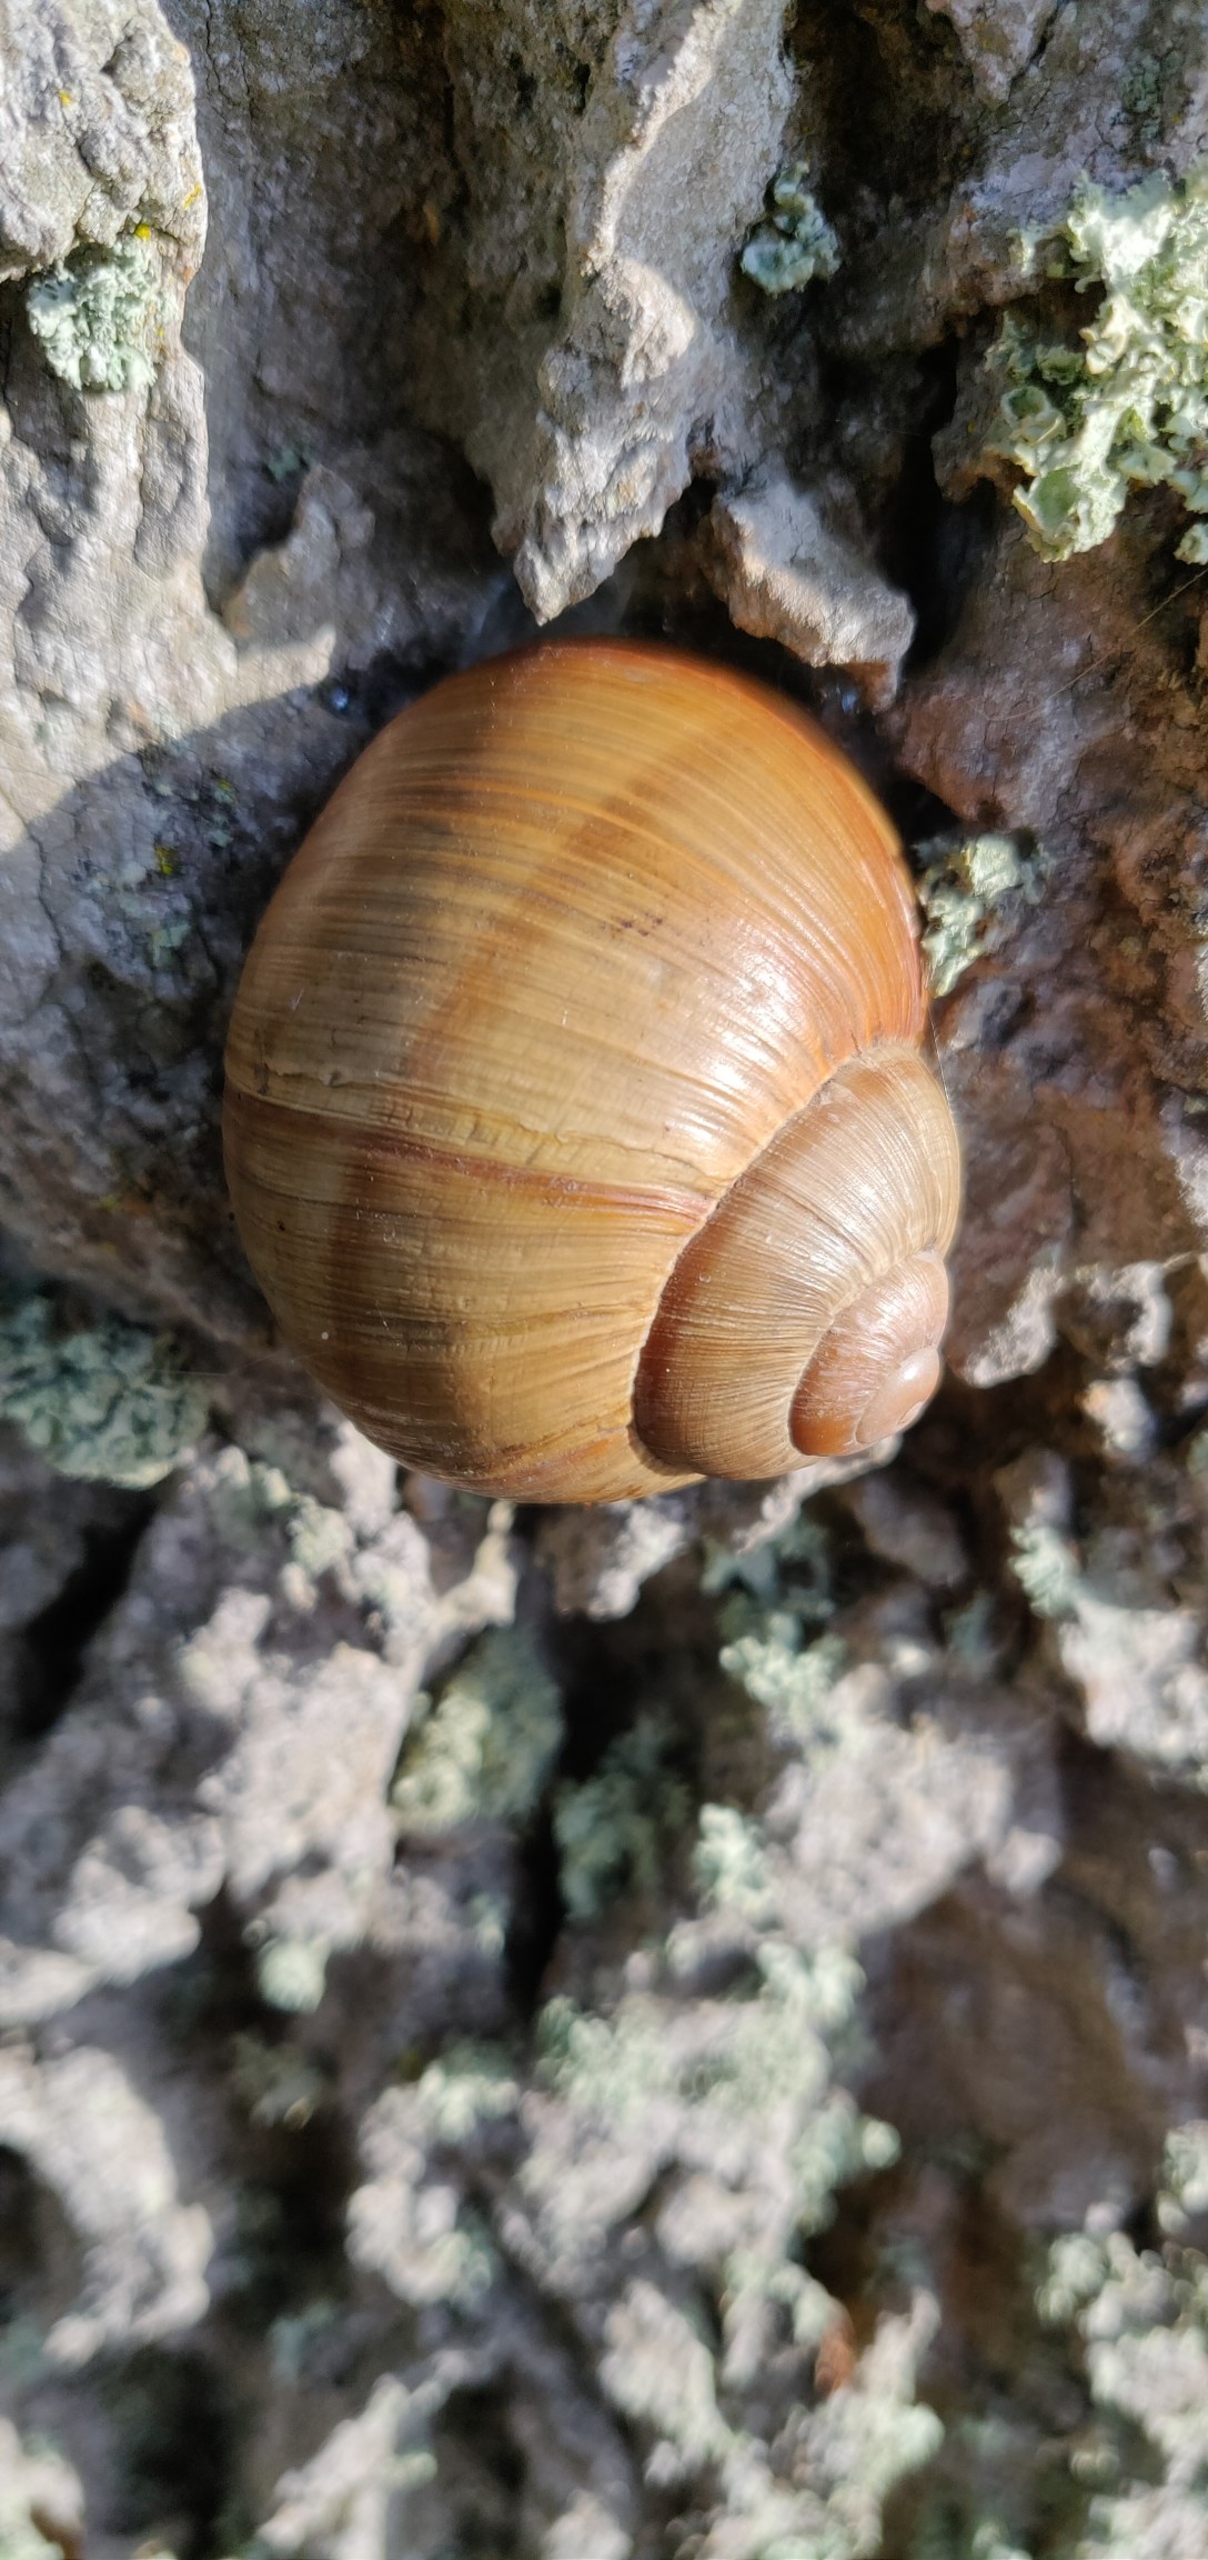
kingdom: Animalia
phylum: Mollusca
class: Gastropoda
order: Stylommatophora
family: Helicidae
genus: Helix
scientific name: Helix pomatia
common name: Vinbjergsnegl
